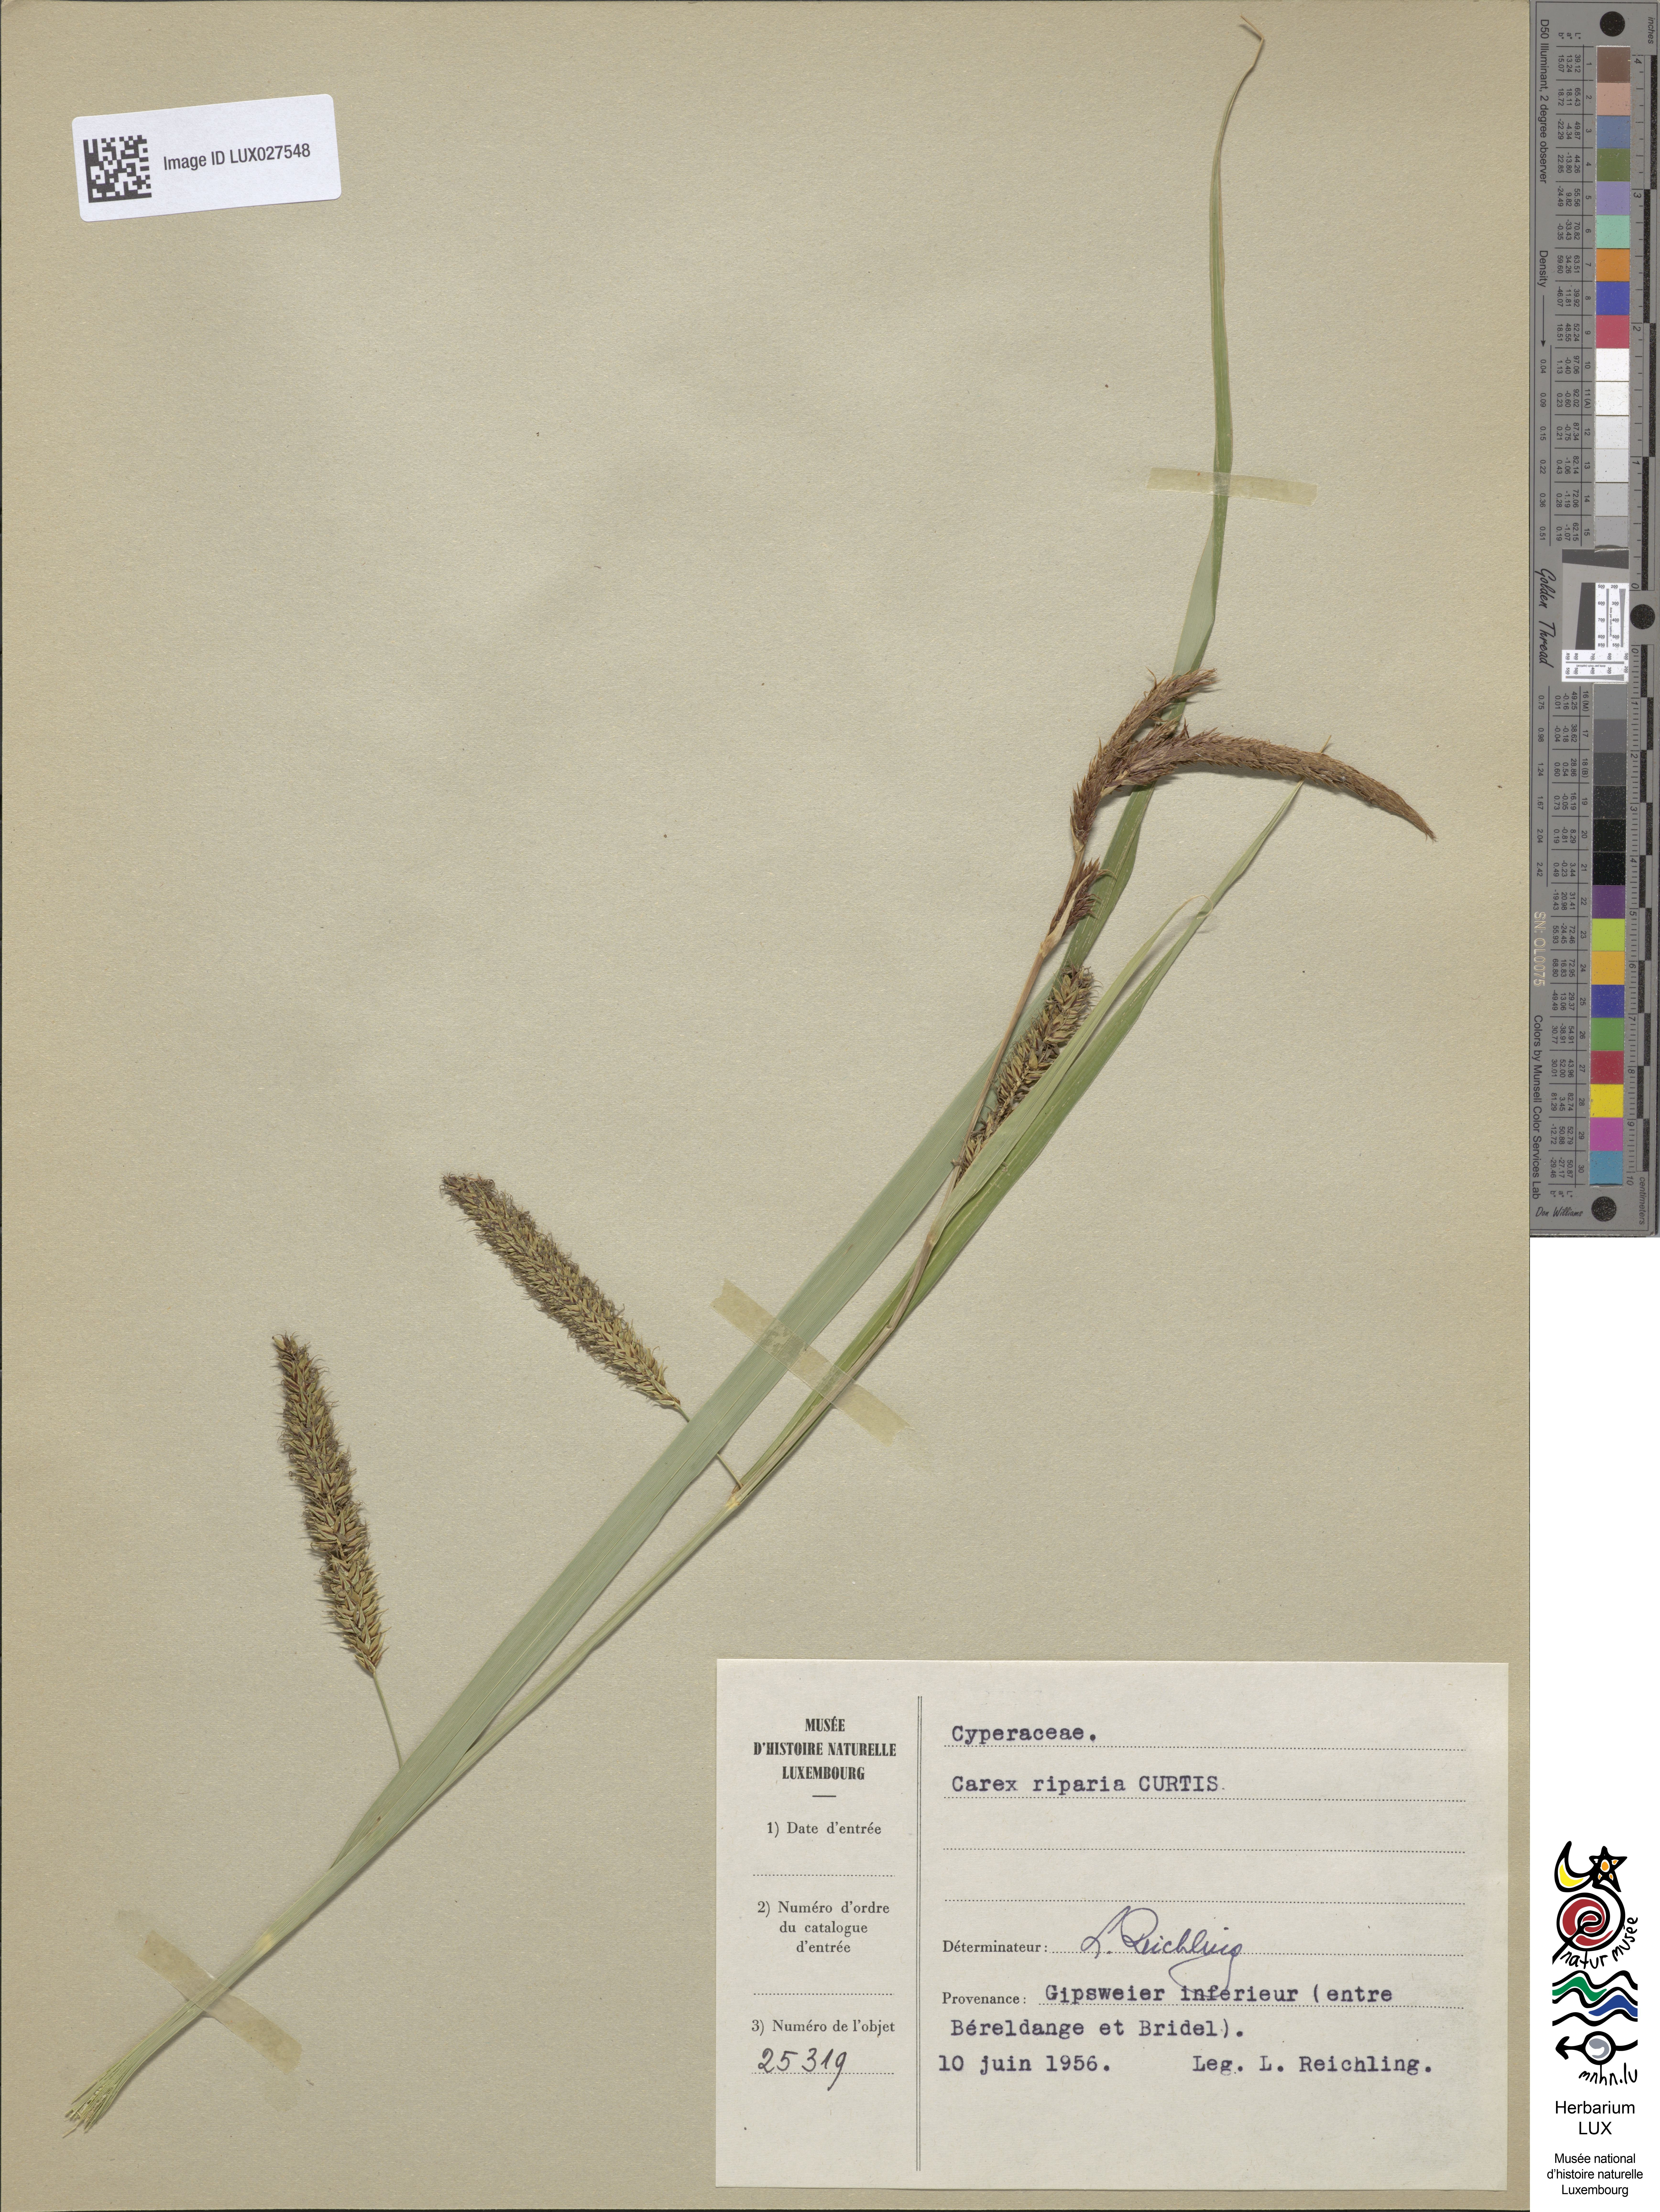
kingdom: Plantae
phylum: Tracheophyta
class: Liliopsida
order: Poales
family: Cyperaceae
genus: Carex
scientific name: Carex riparia
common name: Greater pond-sedge
